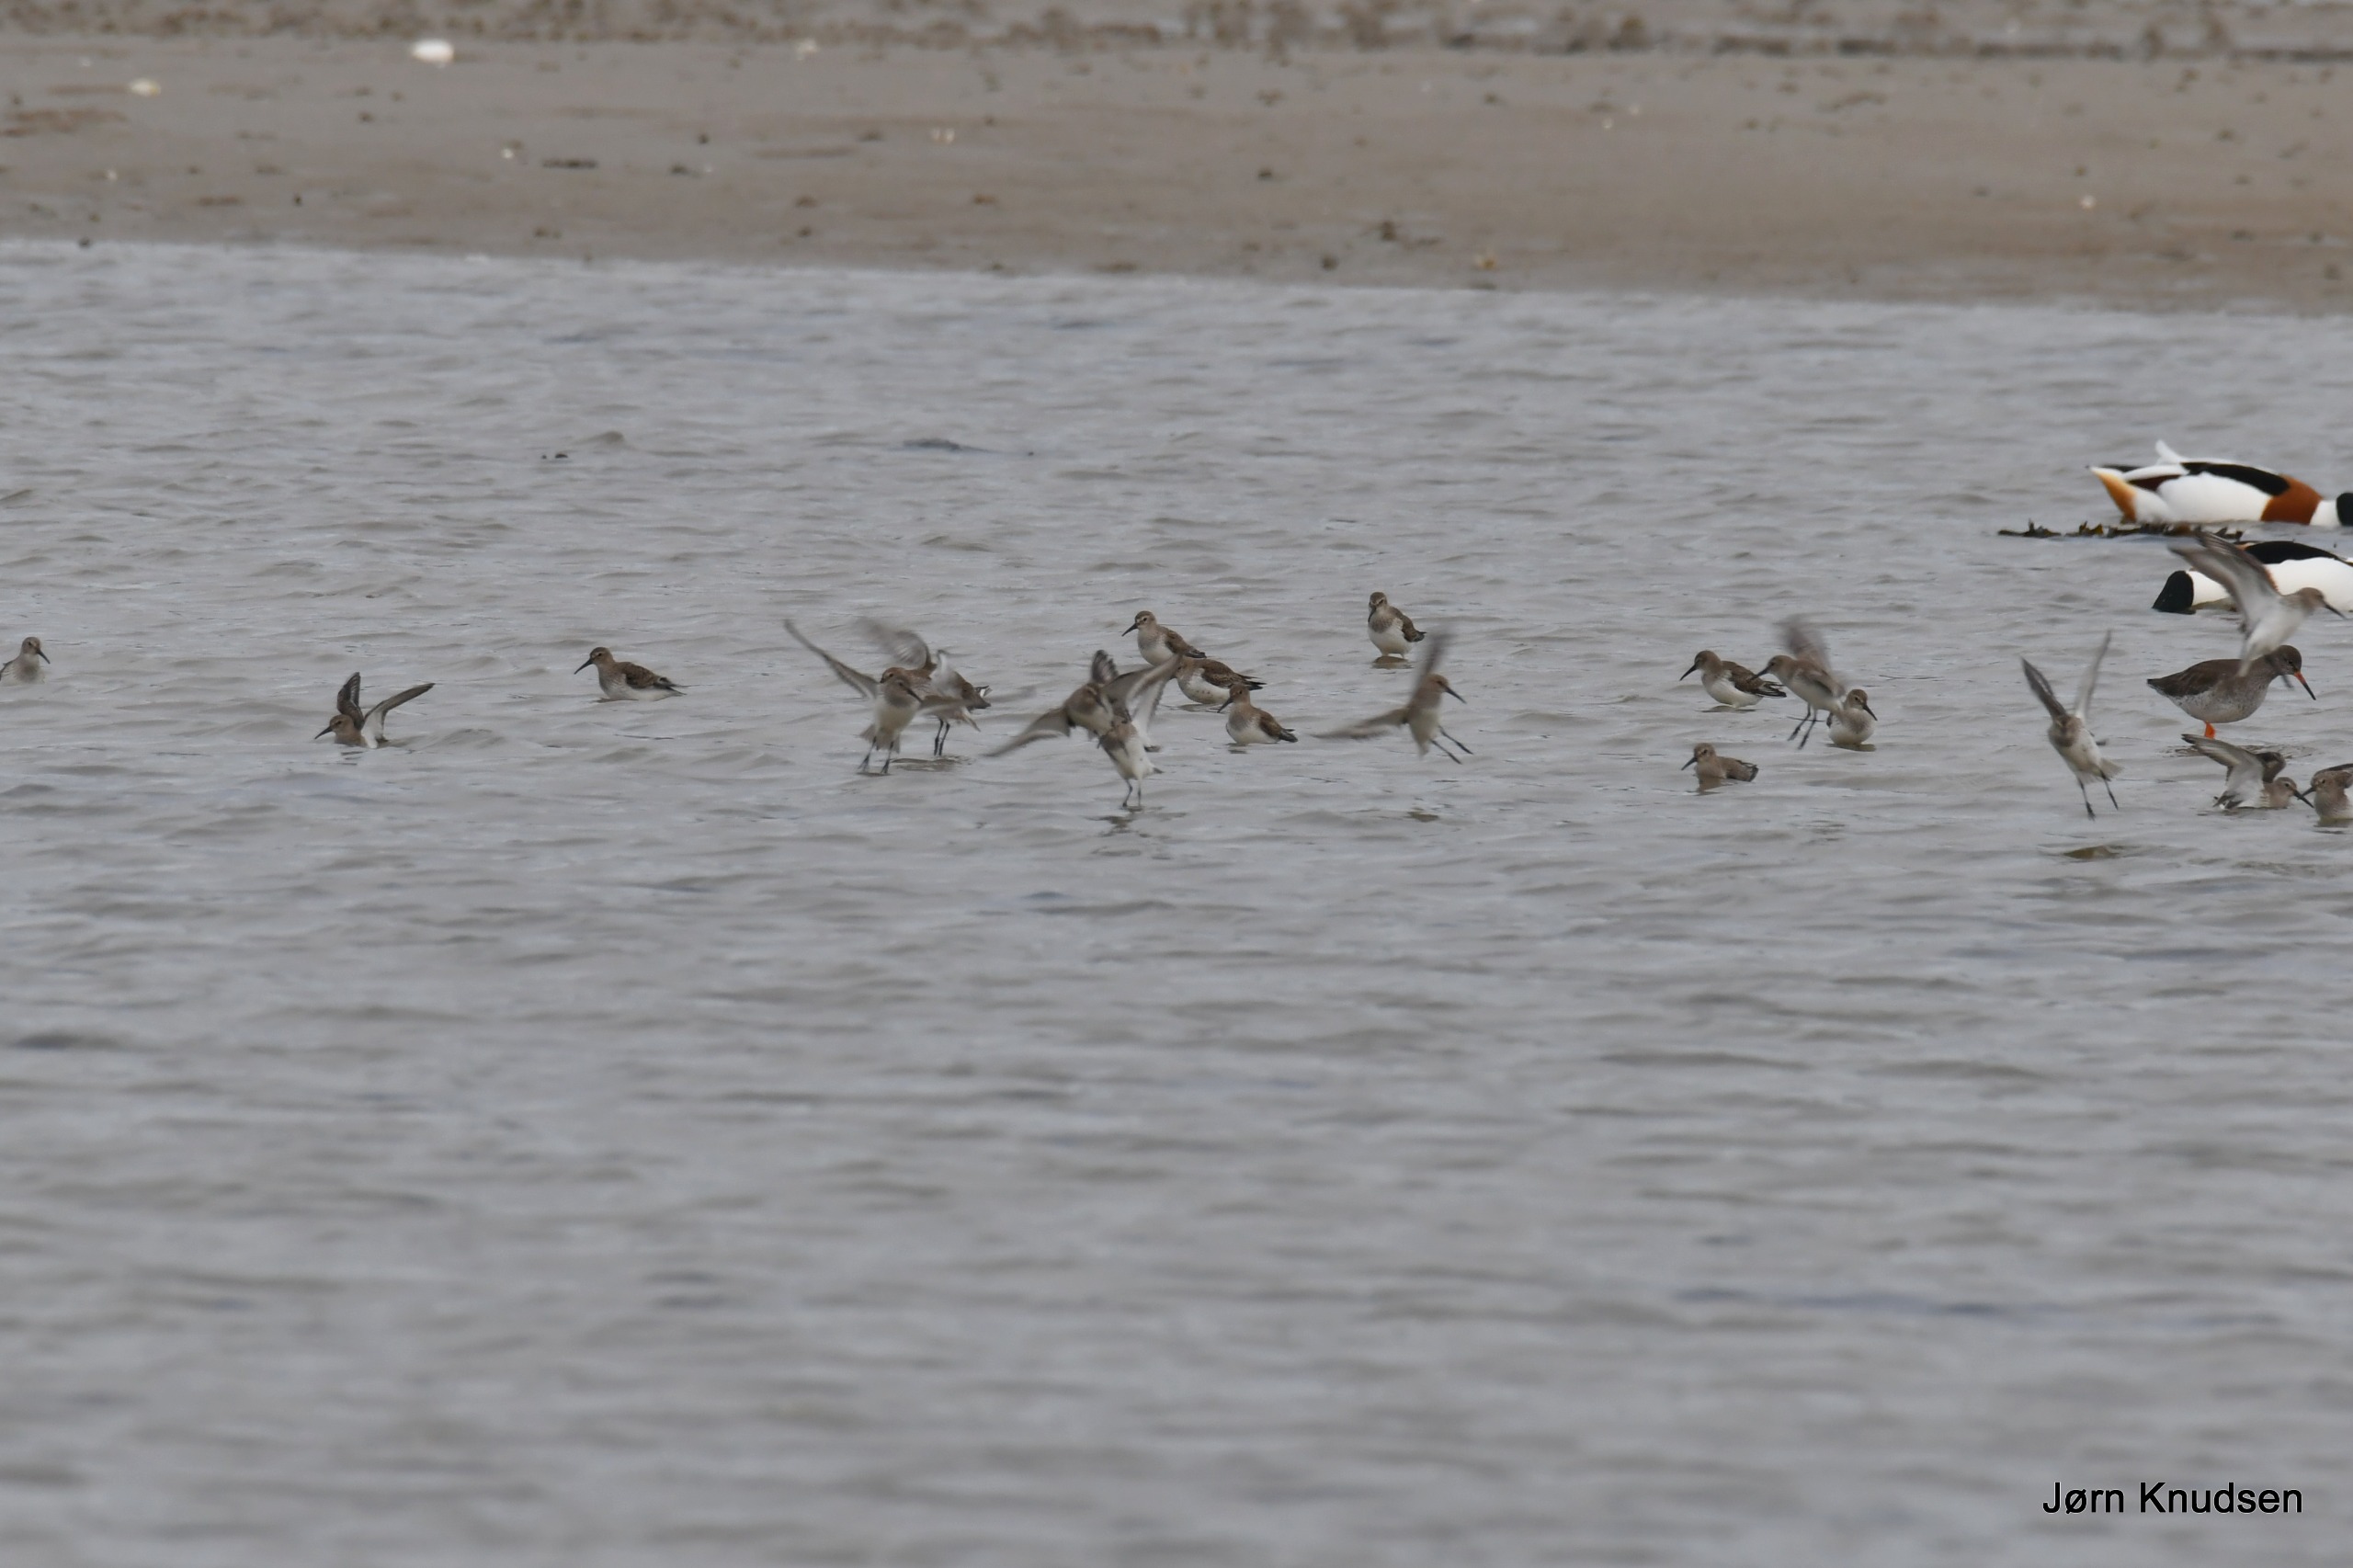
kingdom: Animalia
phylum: Chordata
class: Aves
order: Charadriiformes
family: Scolopacidae
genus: Calidris
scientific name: Calidris alpina
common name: Almindelig ryle
